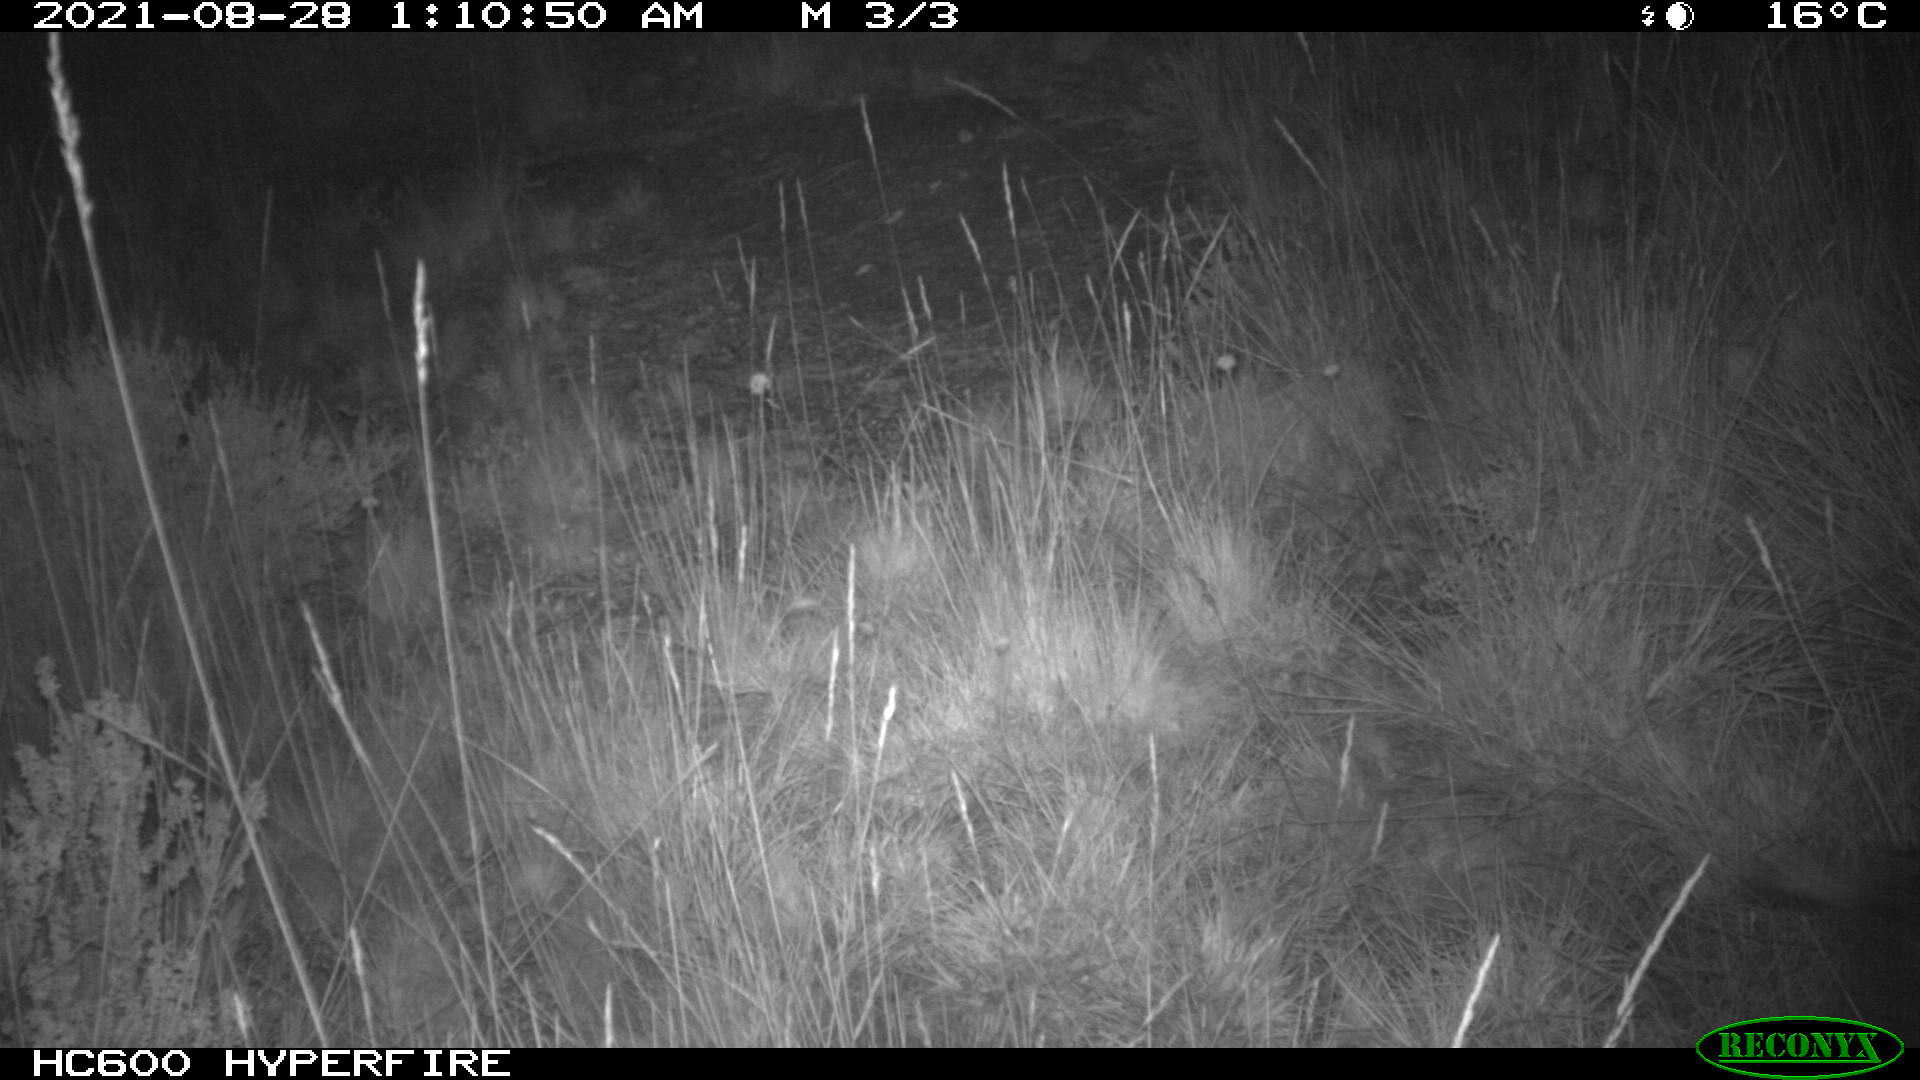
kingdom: Animalia
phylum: Chordata
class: Mammalia
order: Artiodactyla
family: Suidae
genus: Sus
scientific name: Sus scrofa
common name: Wild boar
